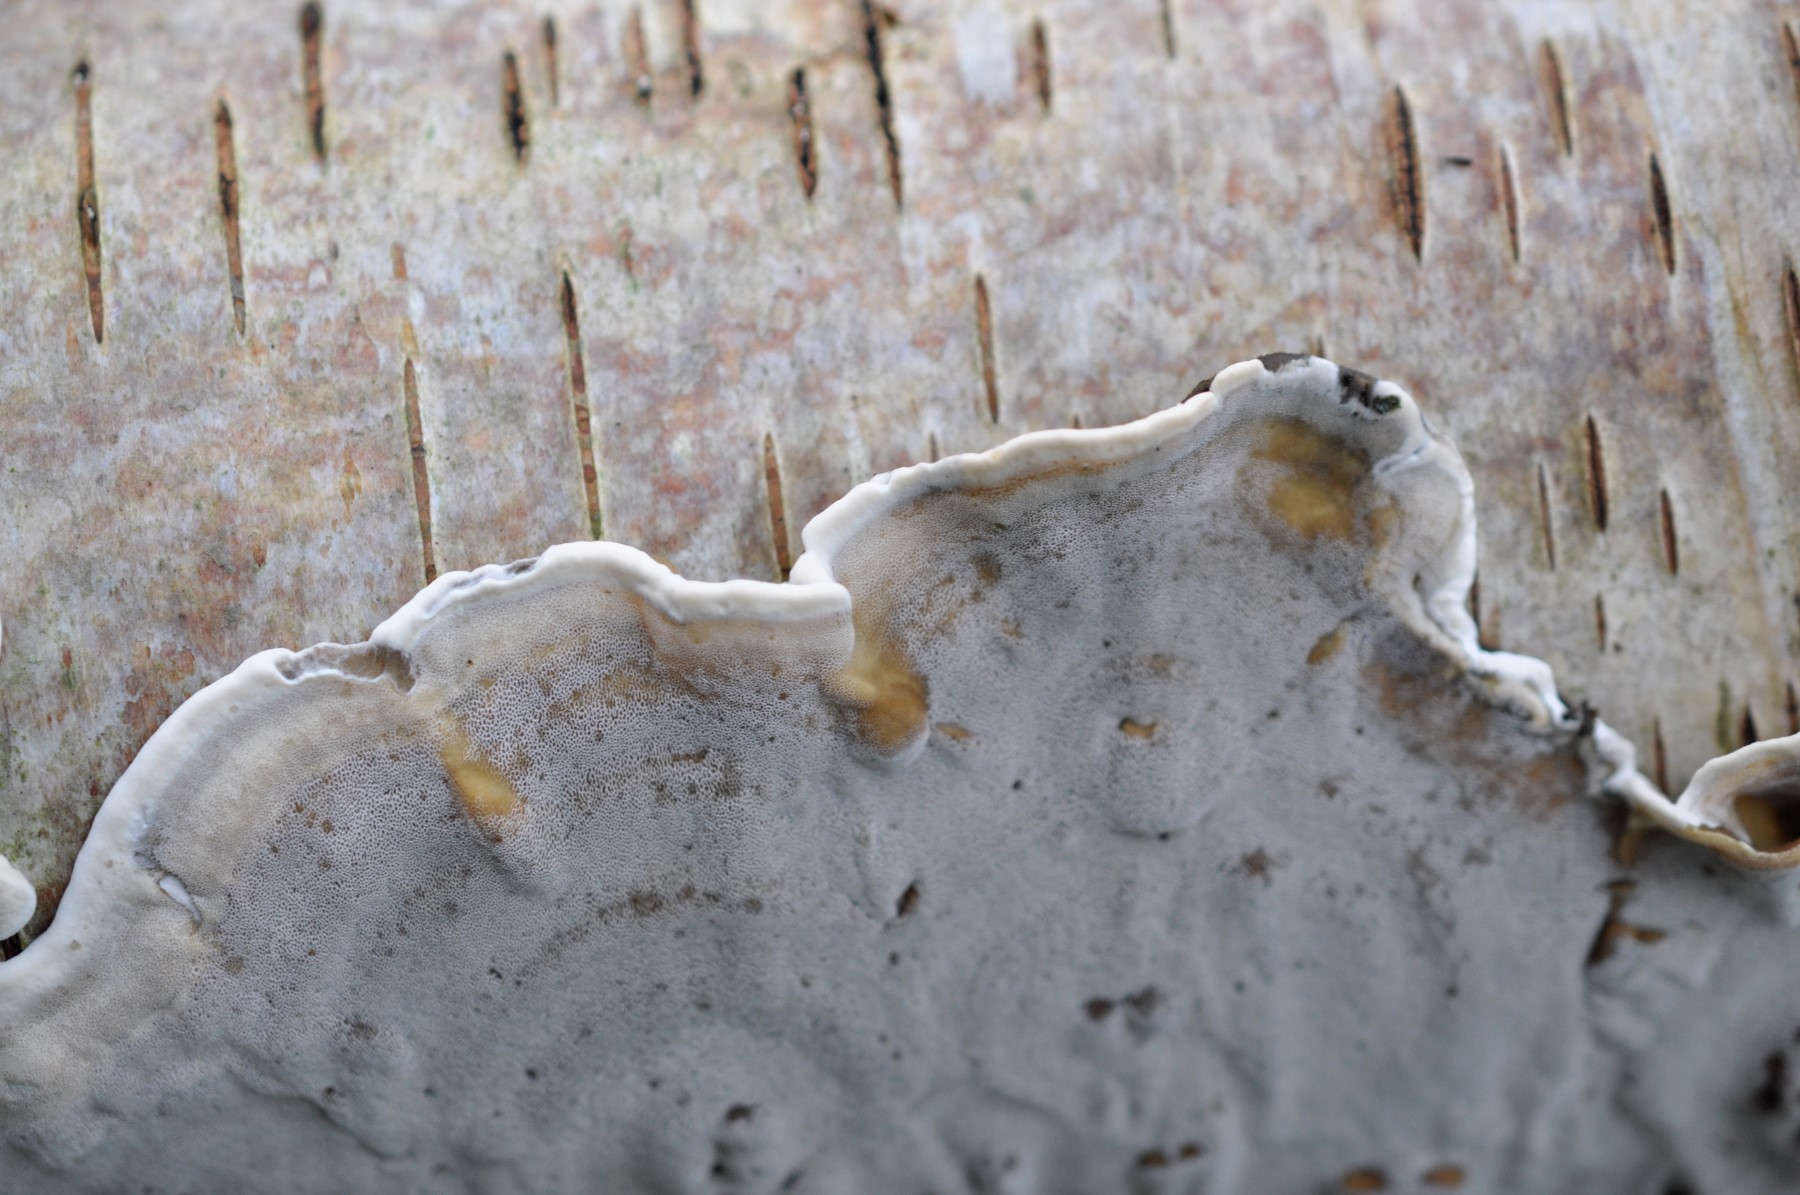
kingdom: Fungi
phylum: Basidiomycota
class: Agaricomycetes
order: Polyporales
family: Phanerochaetaceae
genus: Bjerkandera
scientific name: Bjerkandera adusta
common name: sveden sodporesvamp
